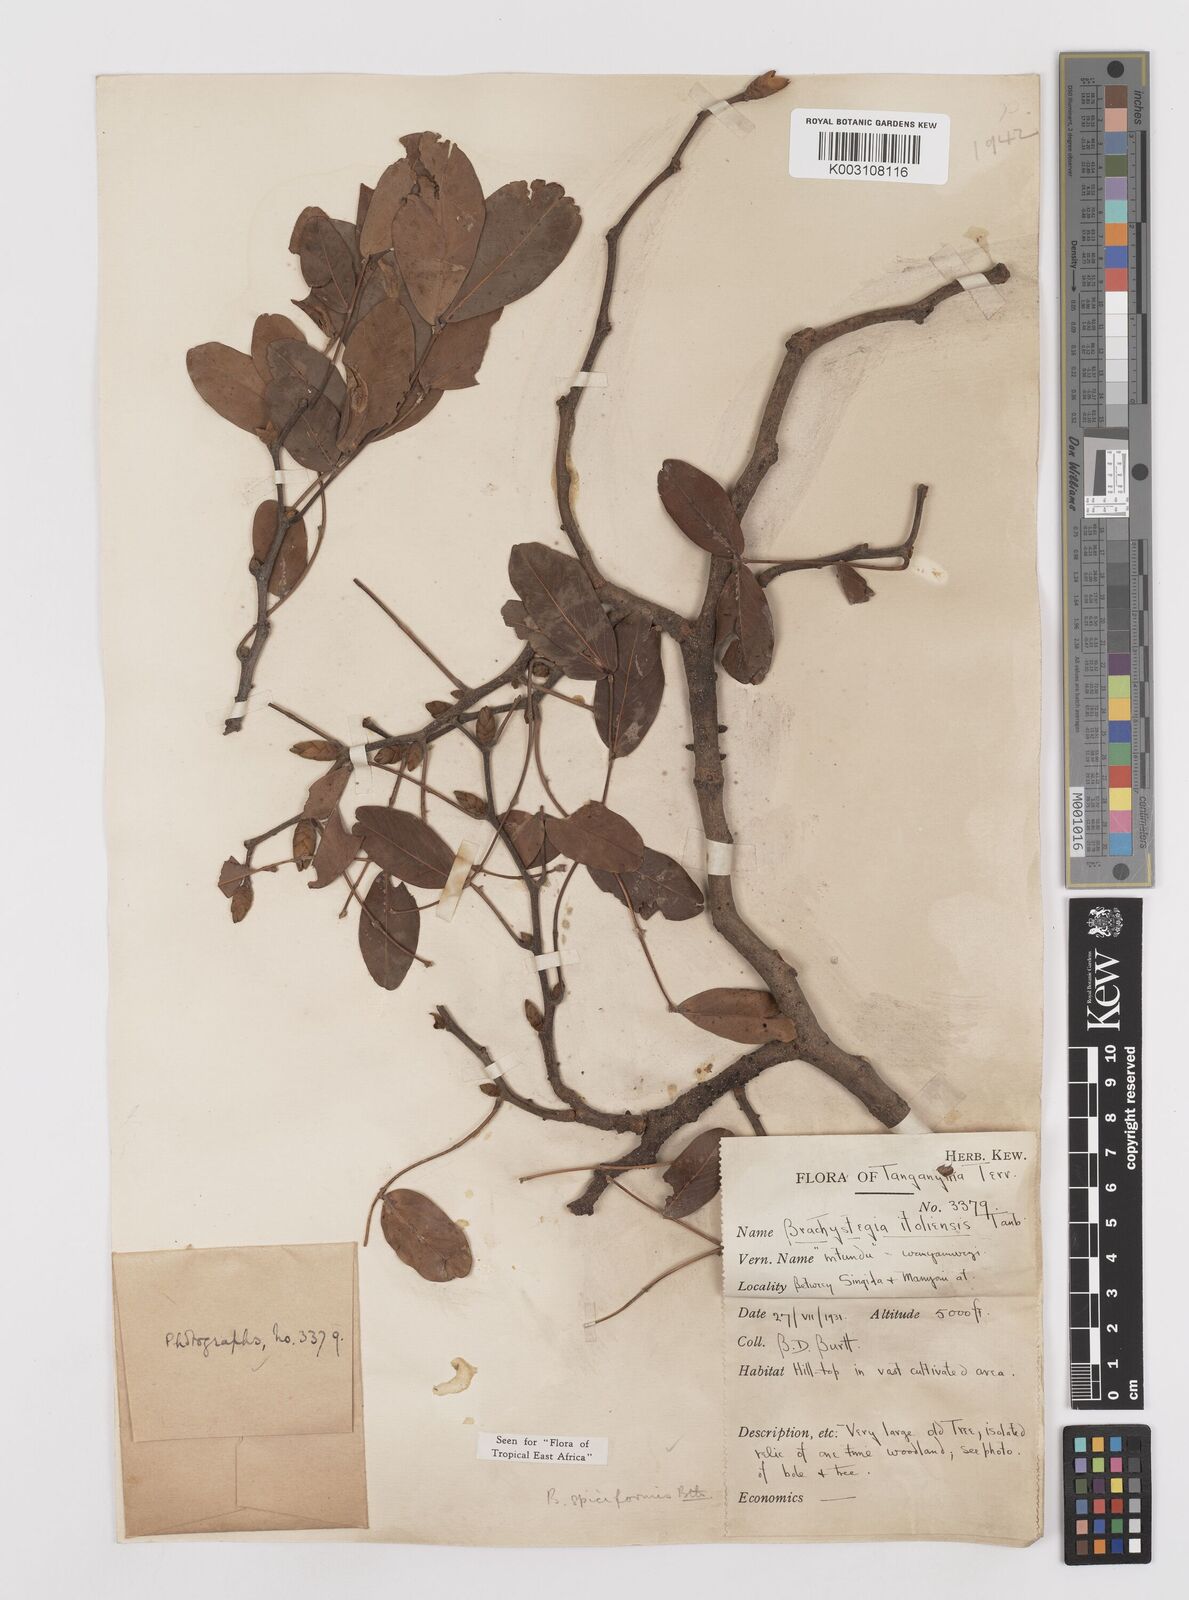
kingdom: Plantae
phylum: Tracheophyta
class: Magnoliopsida
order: Fabales
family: Fabaceae
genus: Brachystegia
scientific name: Brachystegia spiciformis
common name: Zebrawood
